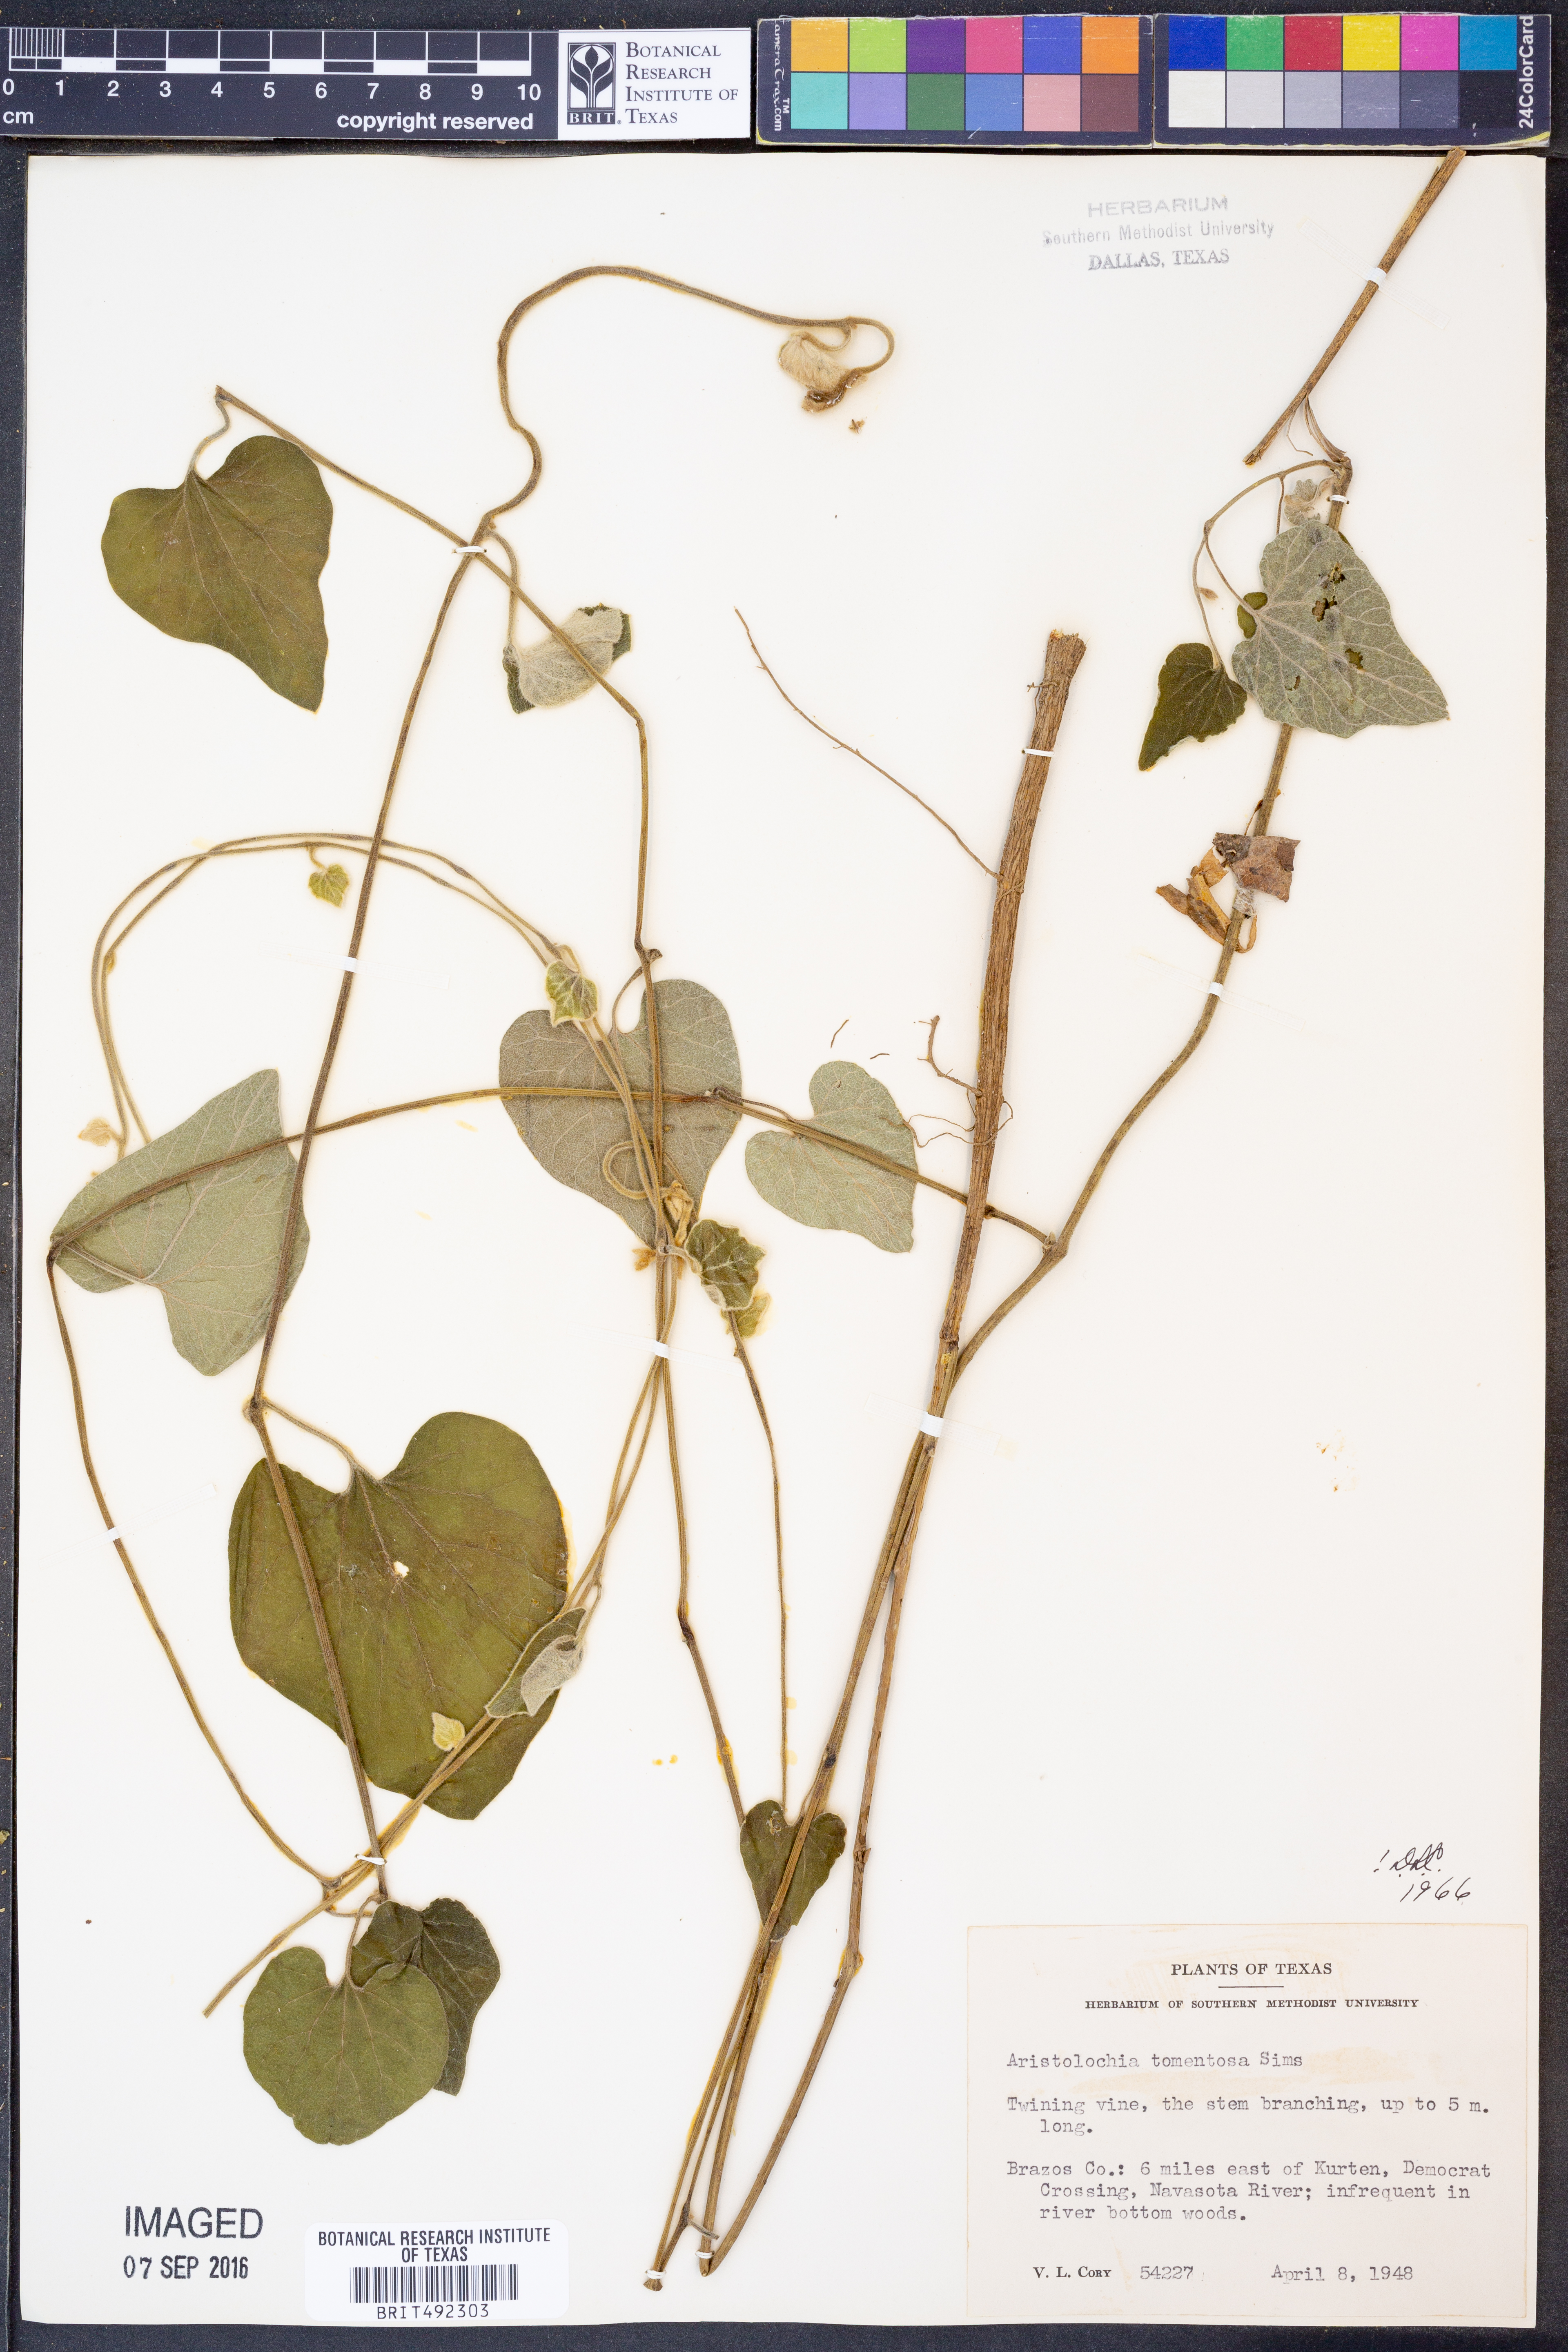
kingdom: Plantae
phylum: Tracheophyta
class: Magnoliopsida
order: Piperales
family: Aristolochiaceae
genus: Isotrema
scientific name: Isotrema tomentosum
